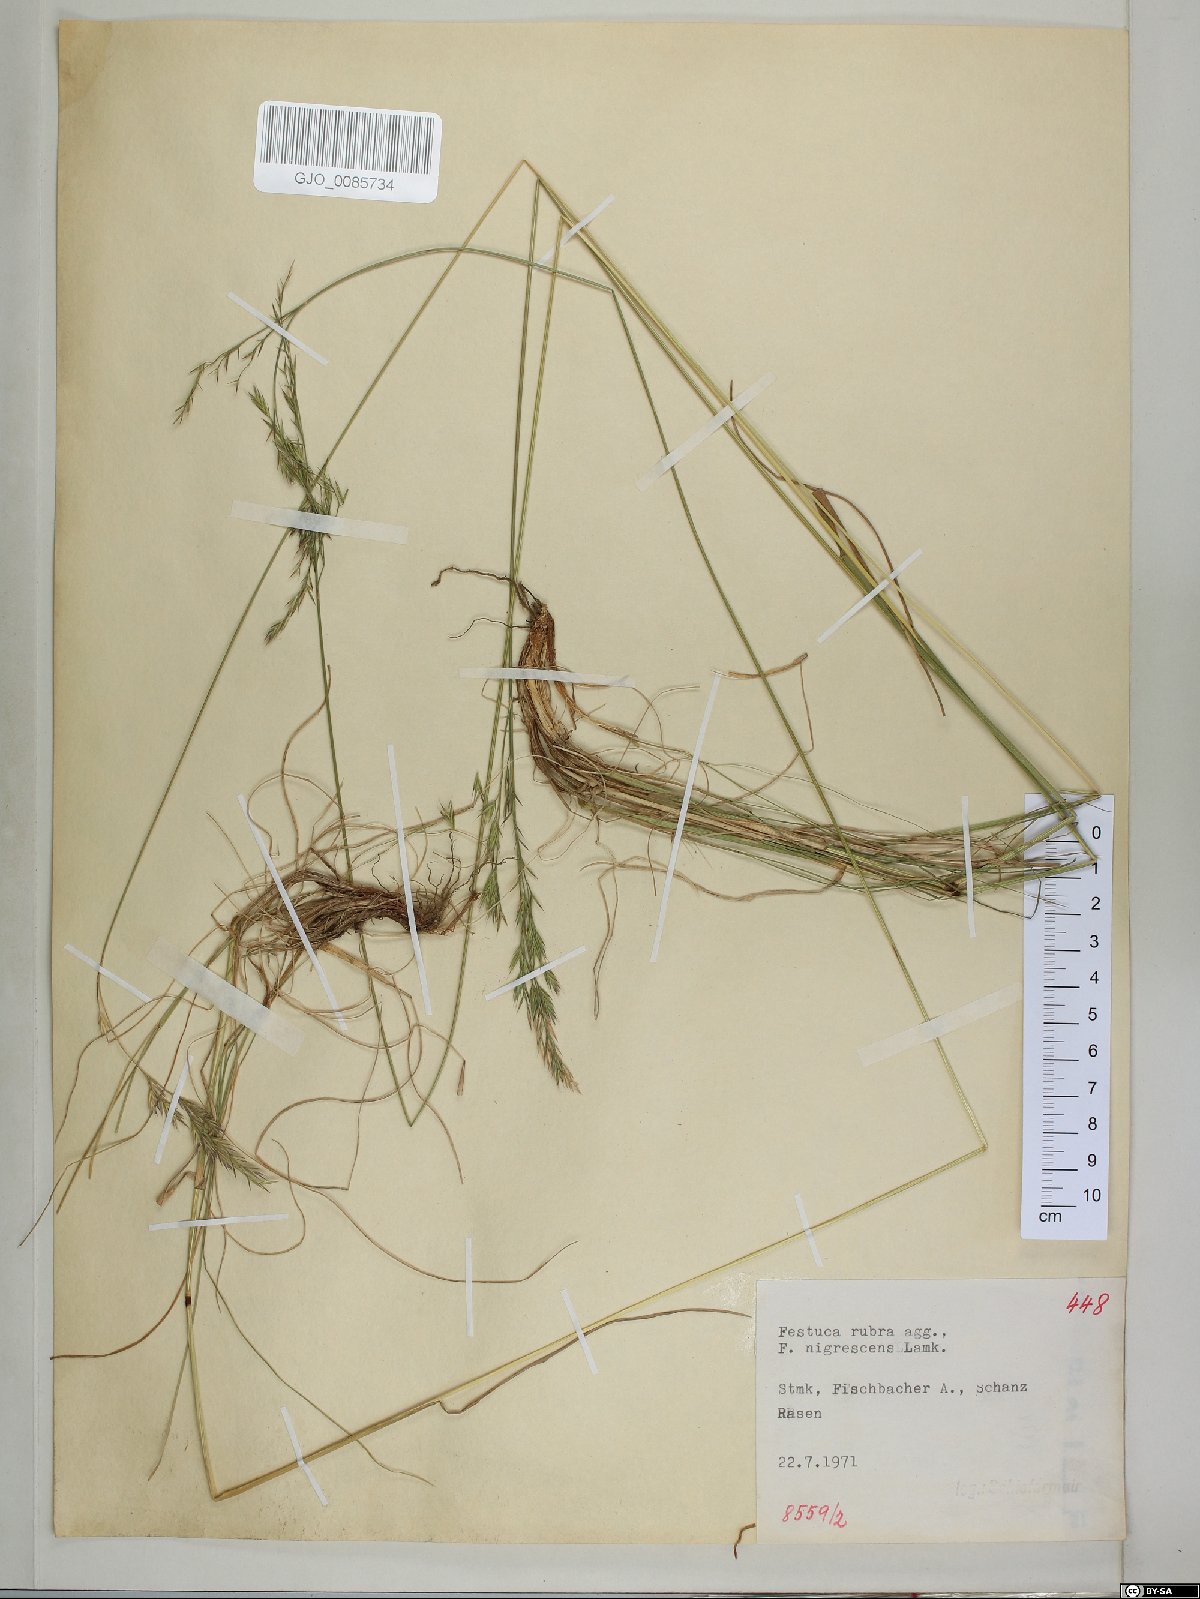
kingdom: Plantae
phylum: Tracheophyta
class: Liliopsida
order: Poales
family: Poaceae
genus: Festuca
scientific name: Festuca nigrescens
